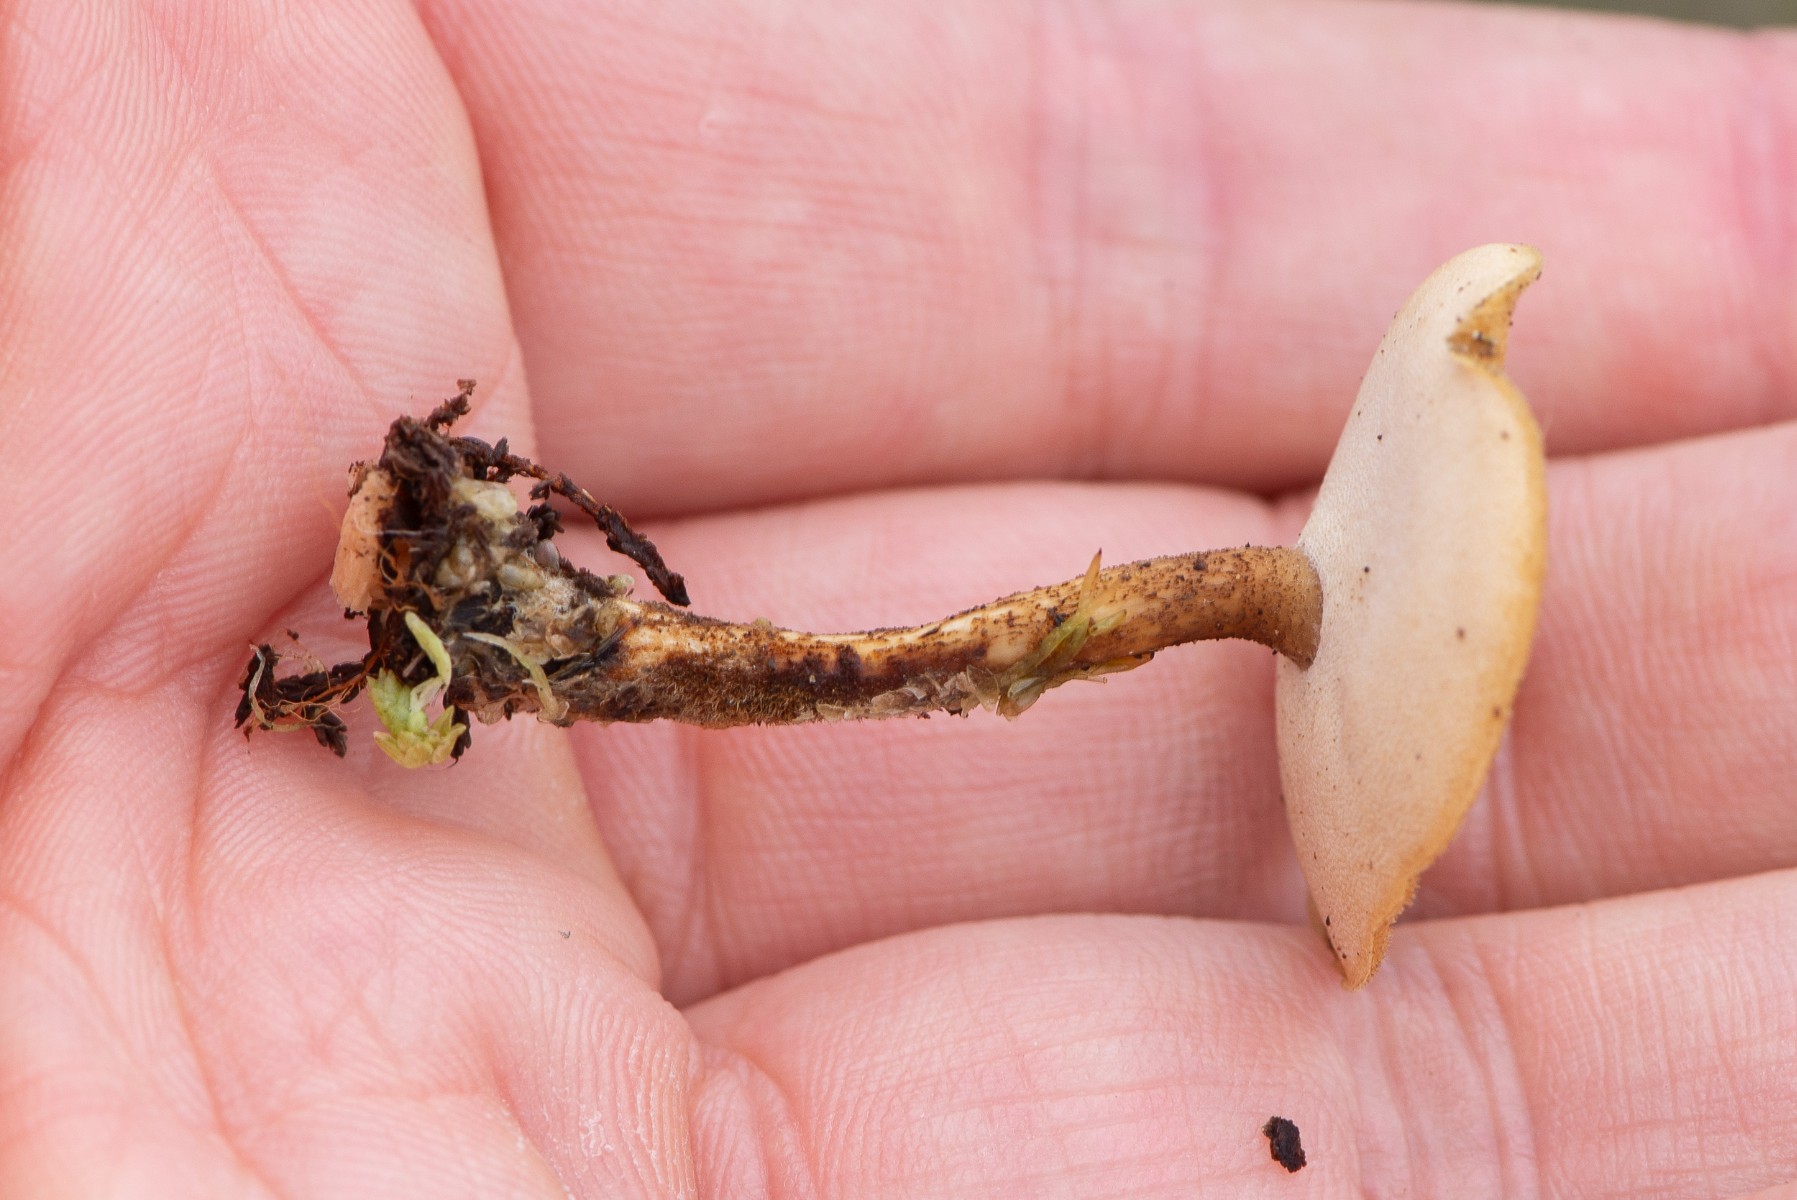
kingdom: Fungi
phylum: Basidiomycota
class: Agaricomycetes
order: Polyporales
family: Polyporaceae
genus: Lentinus
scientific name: Lentinus substrictus
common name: forårs-stilkporesvamp
